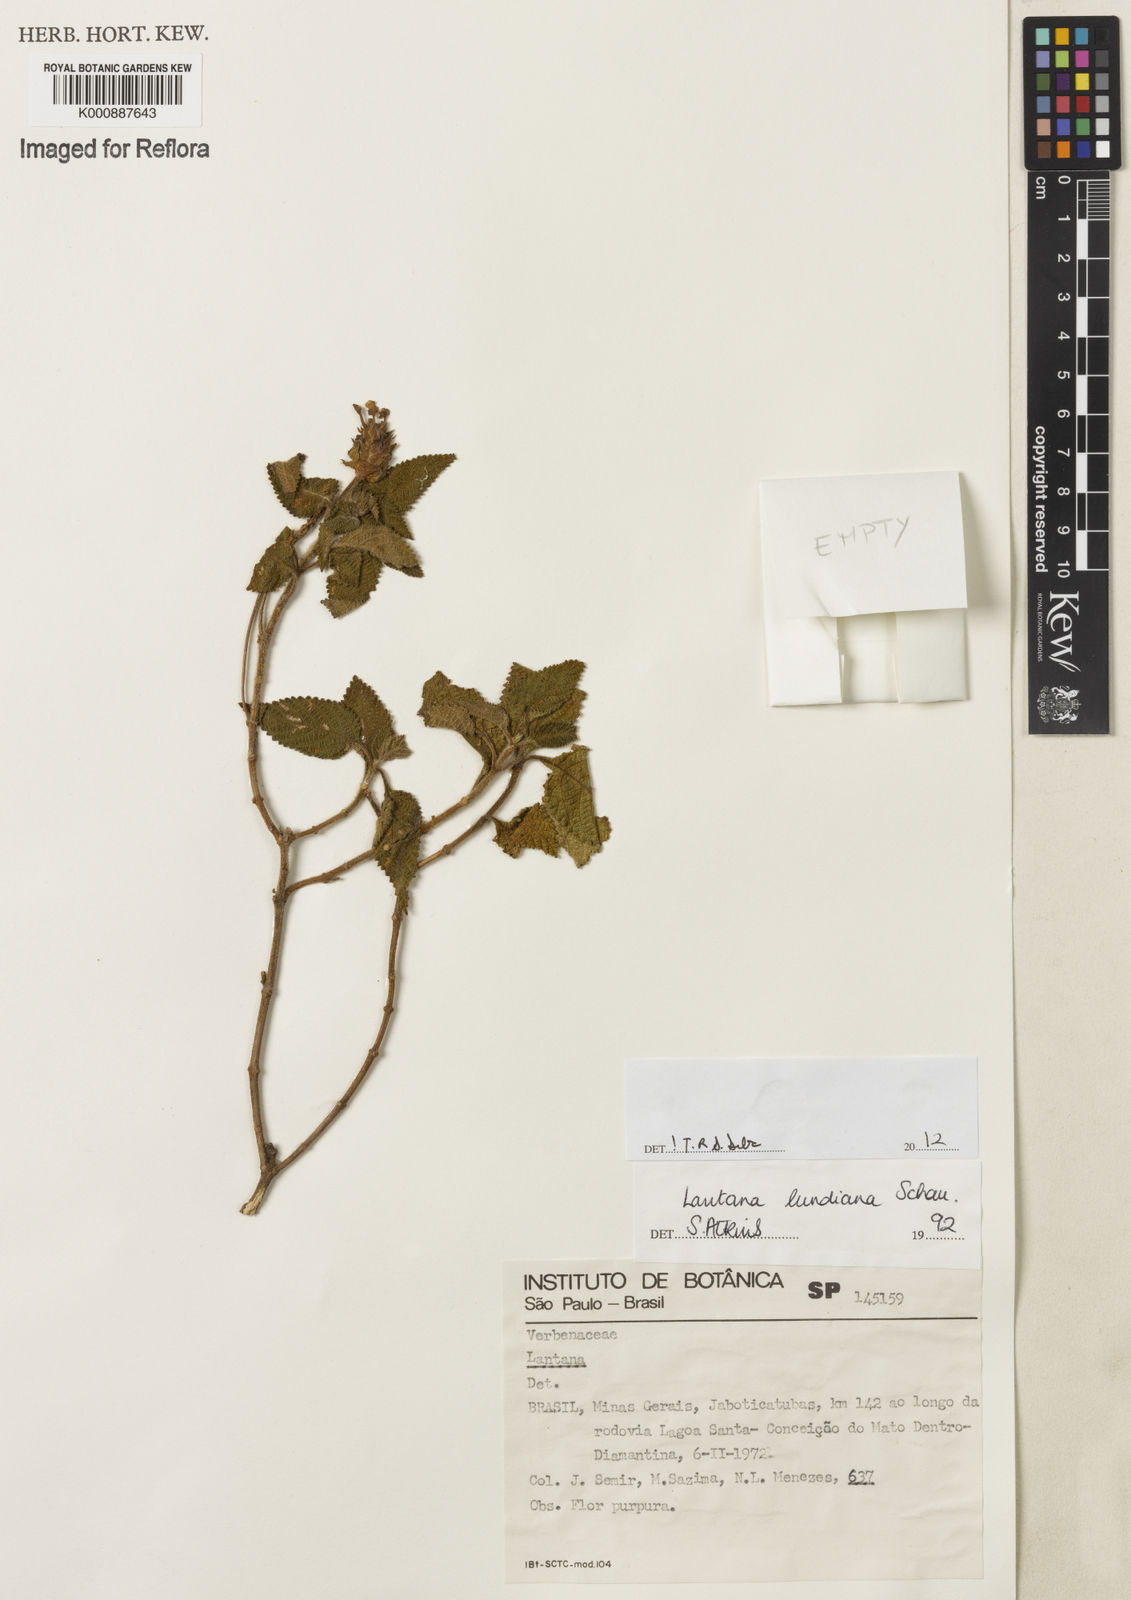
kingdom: Plantae
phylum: Tracheophyta
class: Magnoliopsida
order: Lamiales
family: Verbenaceae
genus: Lantana
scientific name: Lantana lundiana
